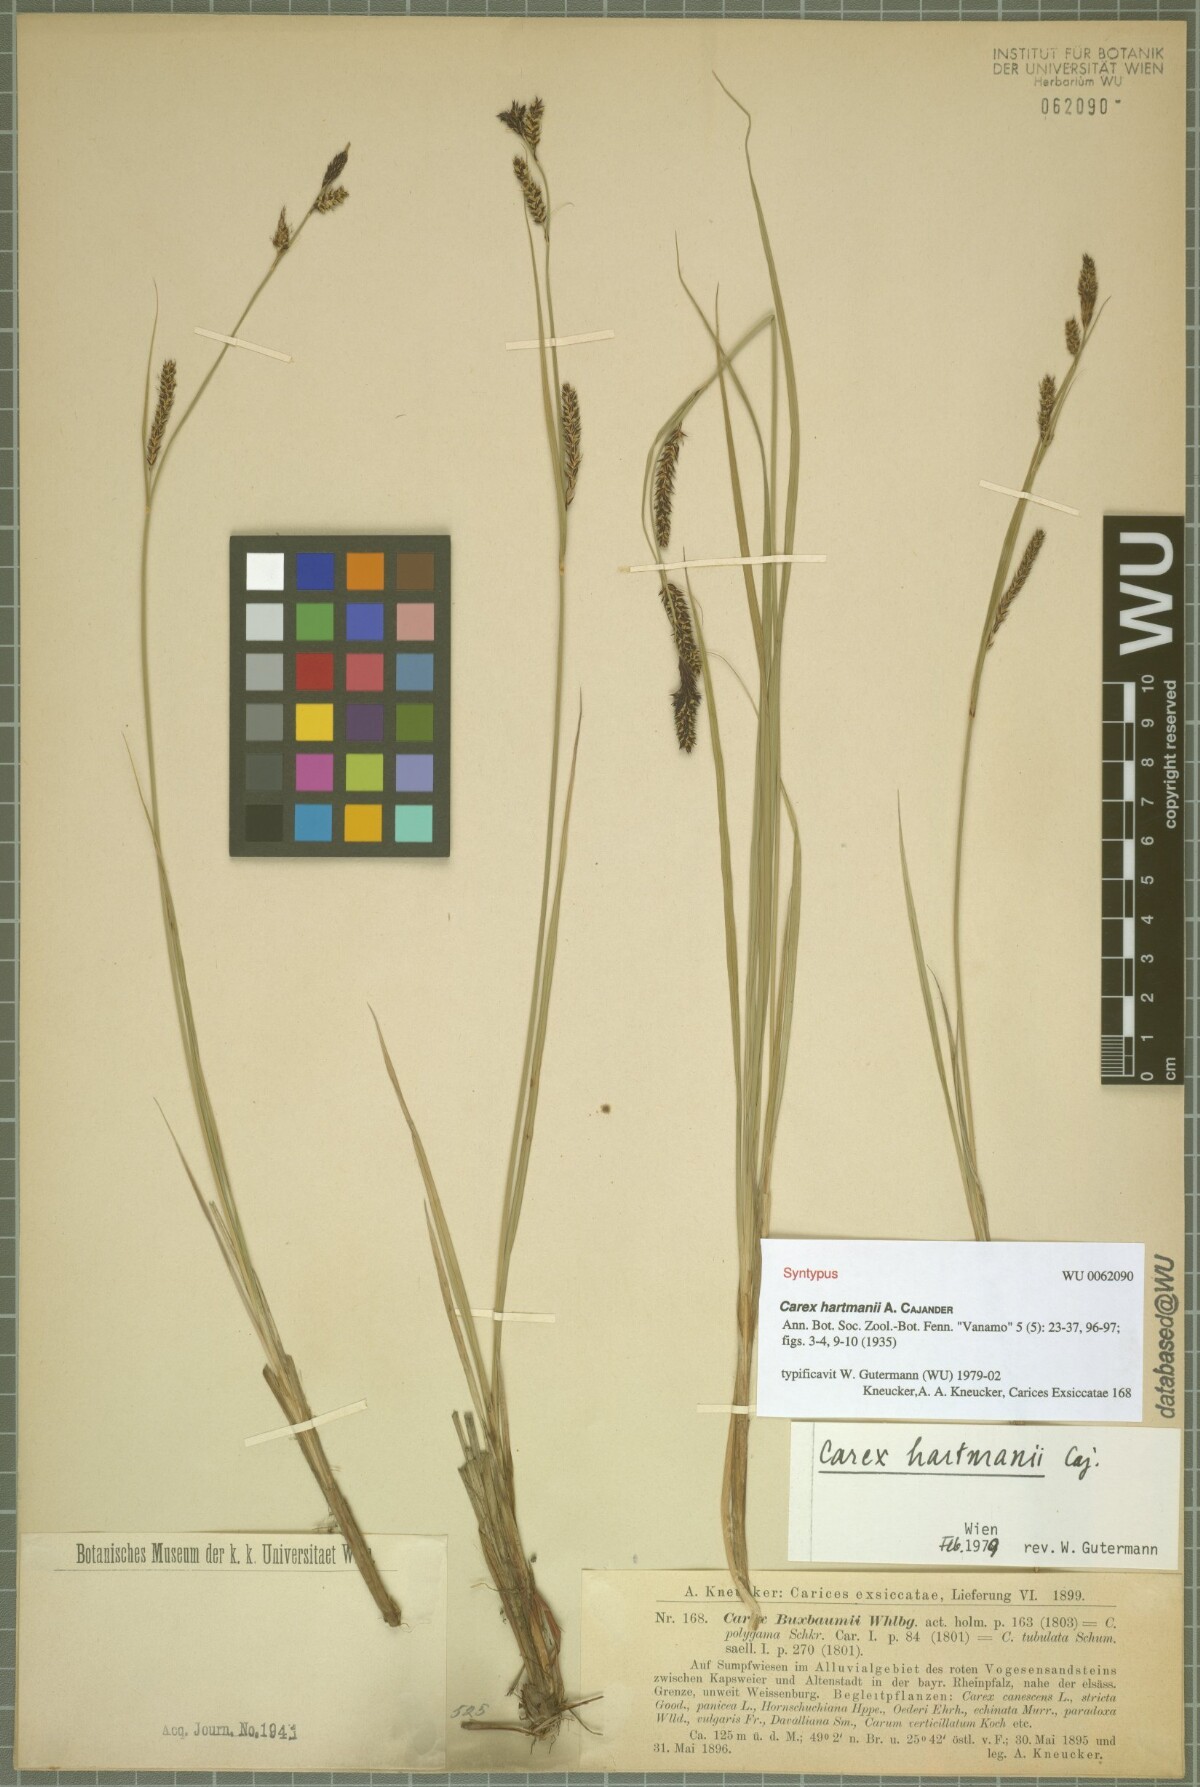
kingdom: Plantae
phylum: Tracheophyta
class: Liliopsida
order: Poales
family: Cyperaceae
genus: Carex
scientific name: Carex hartmaniorum
